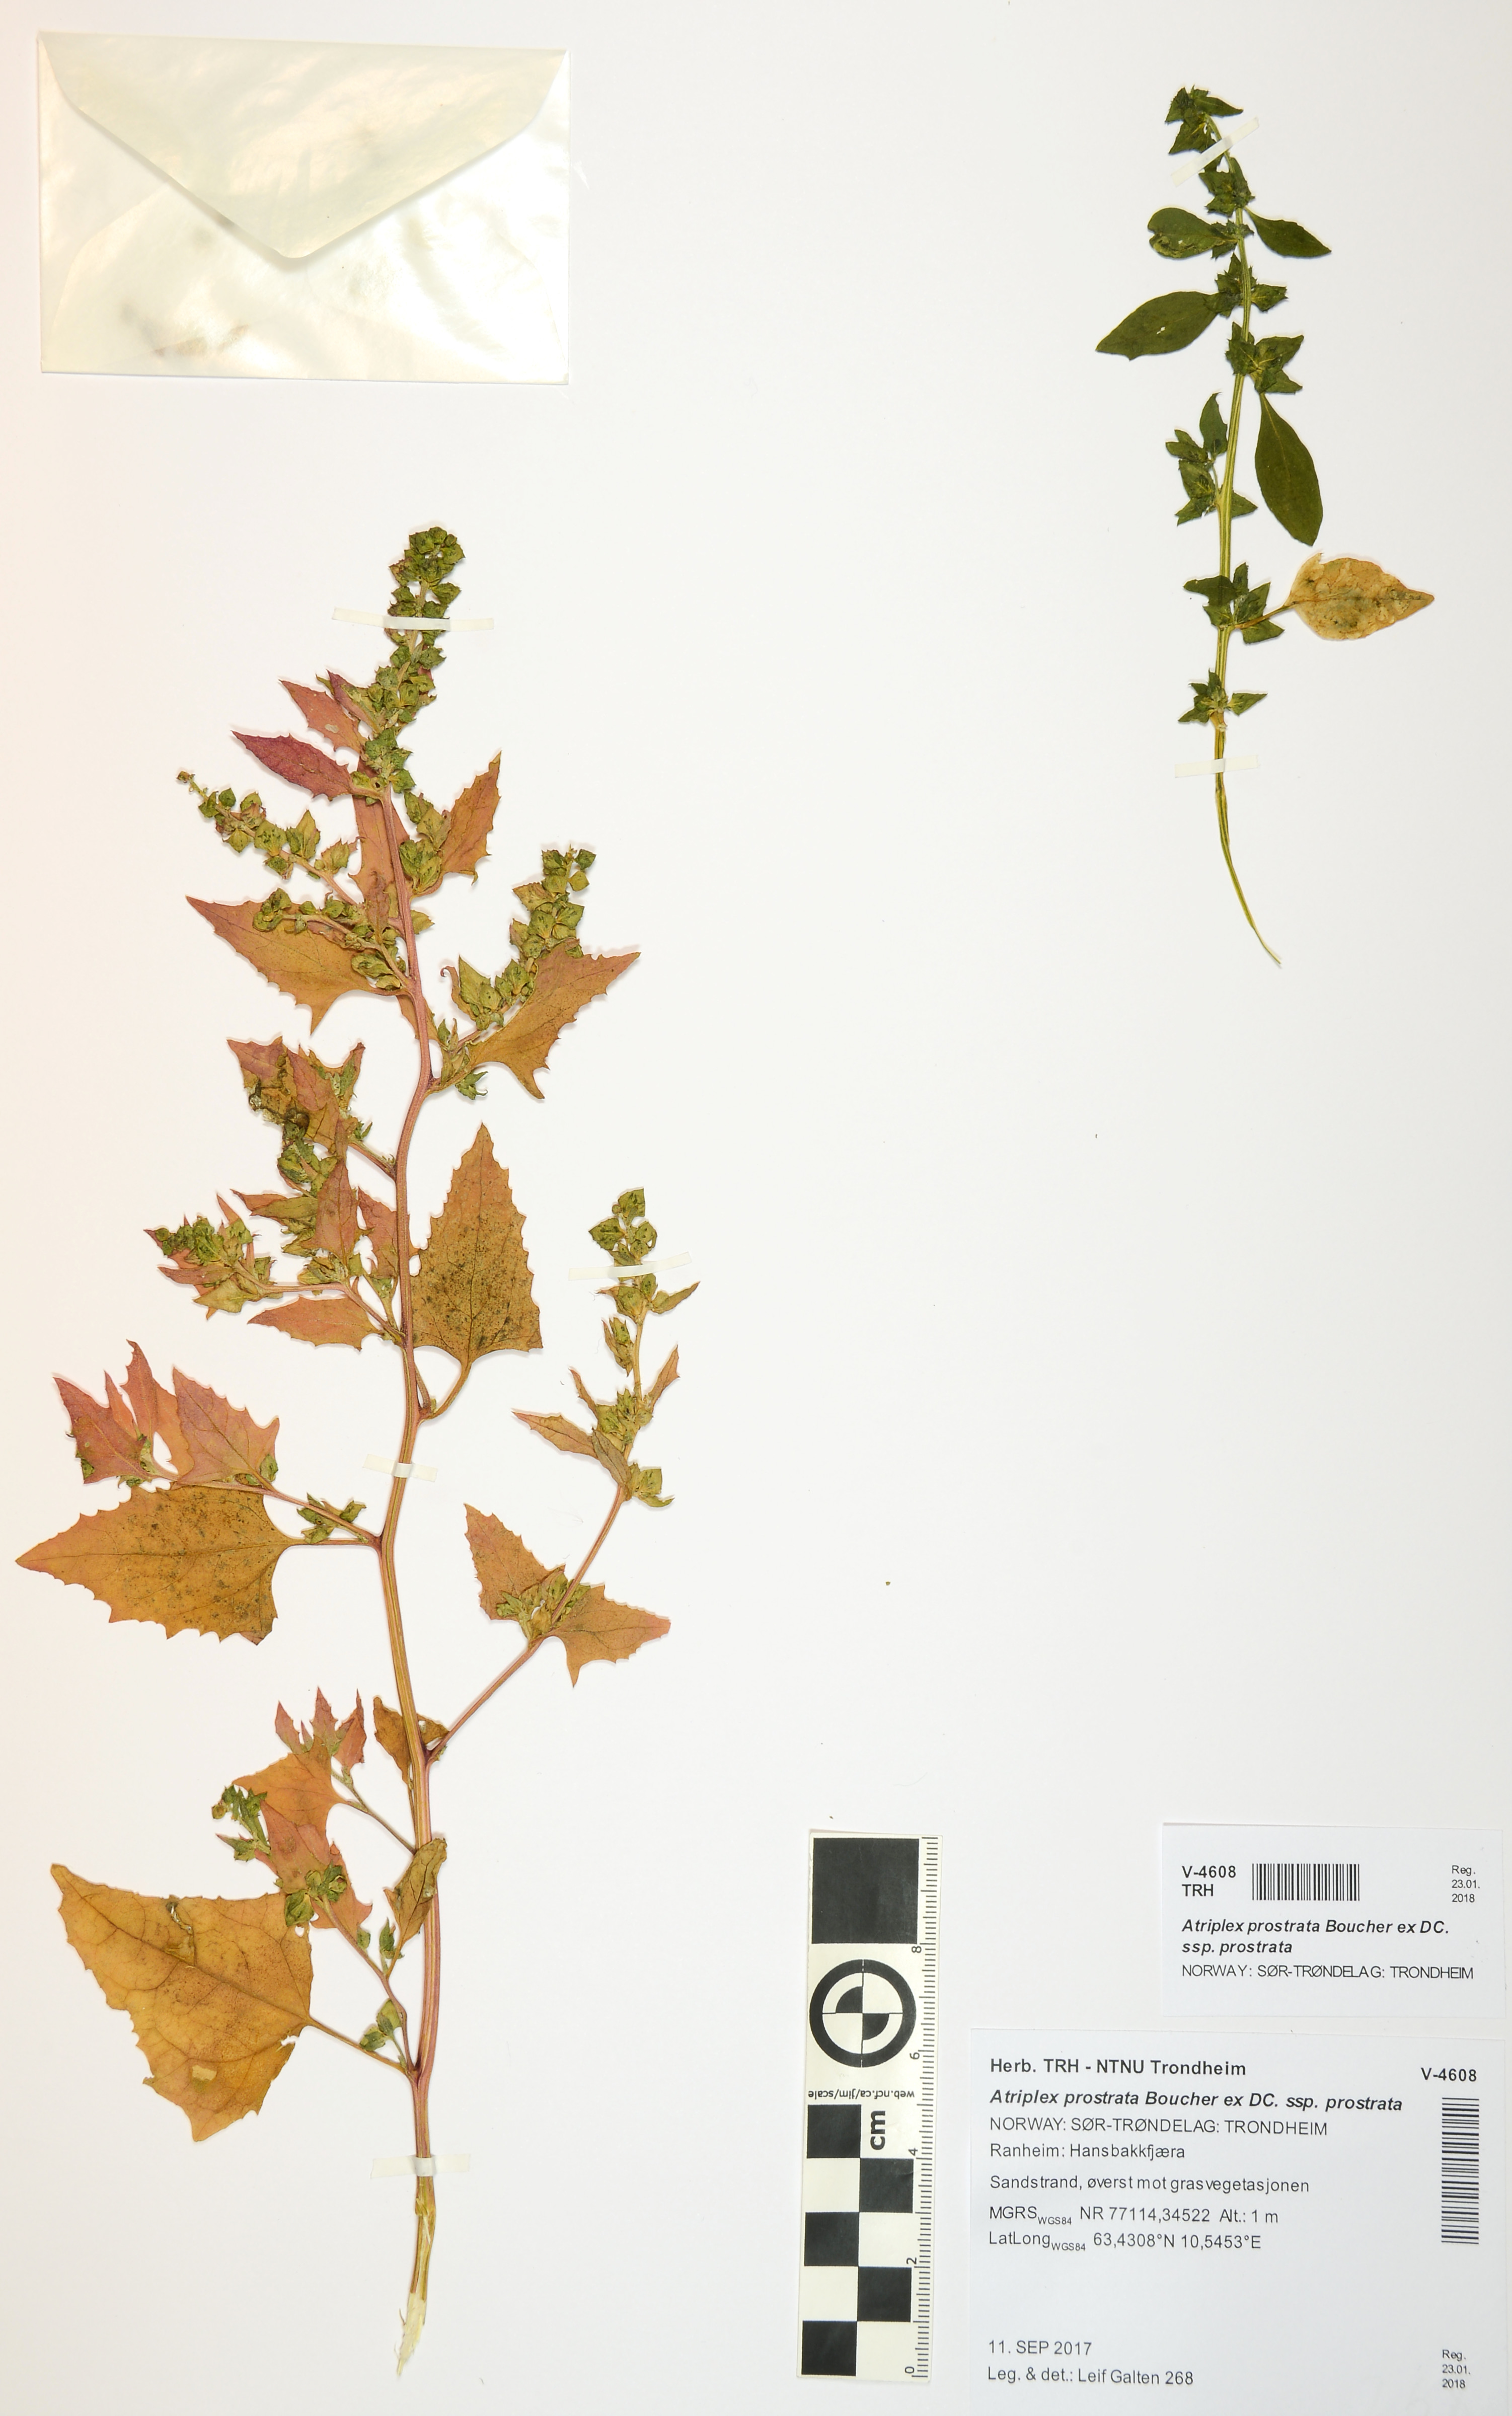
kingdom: Plantae
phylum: Tracheophyta
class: Magnoliopsida
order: Caryophyllales
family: Amaranthaceae
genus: Atriplex
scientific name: Atriplex prostrata
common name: Spear-leaved orache
